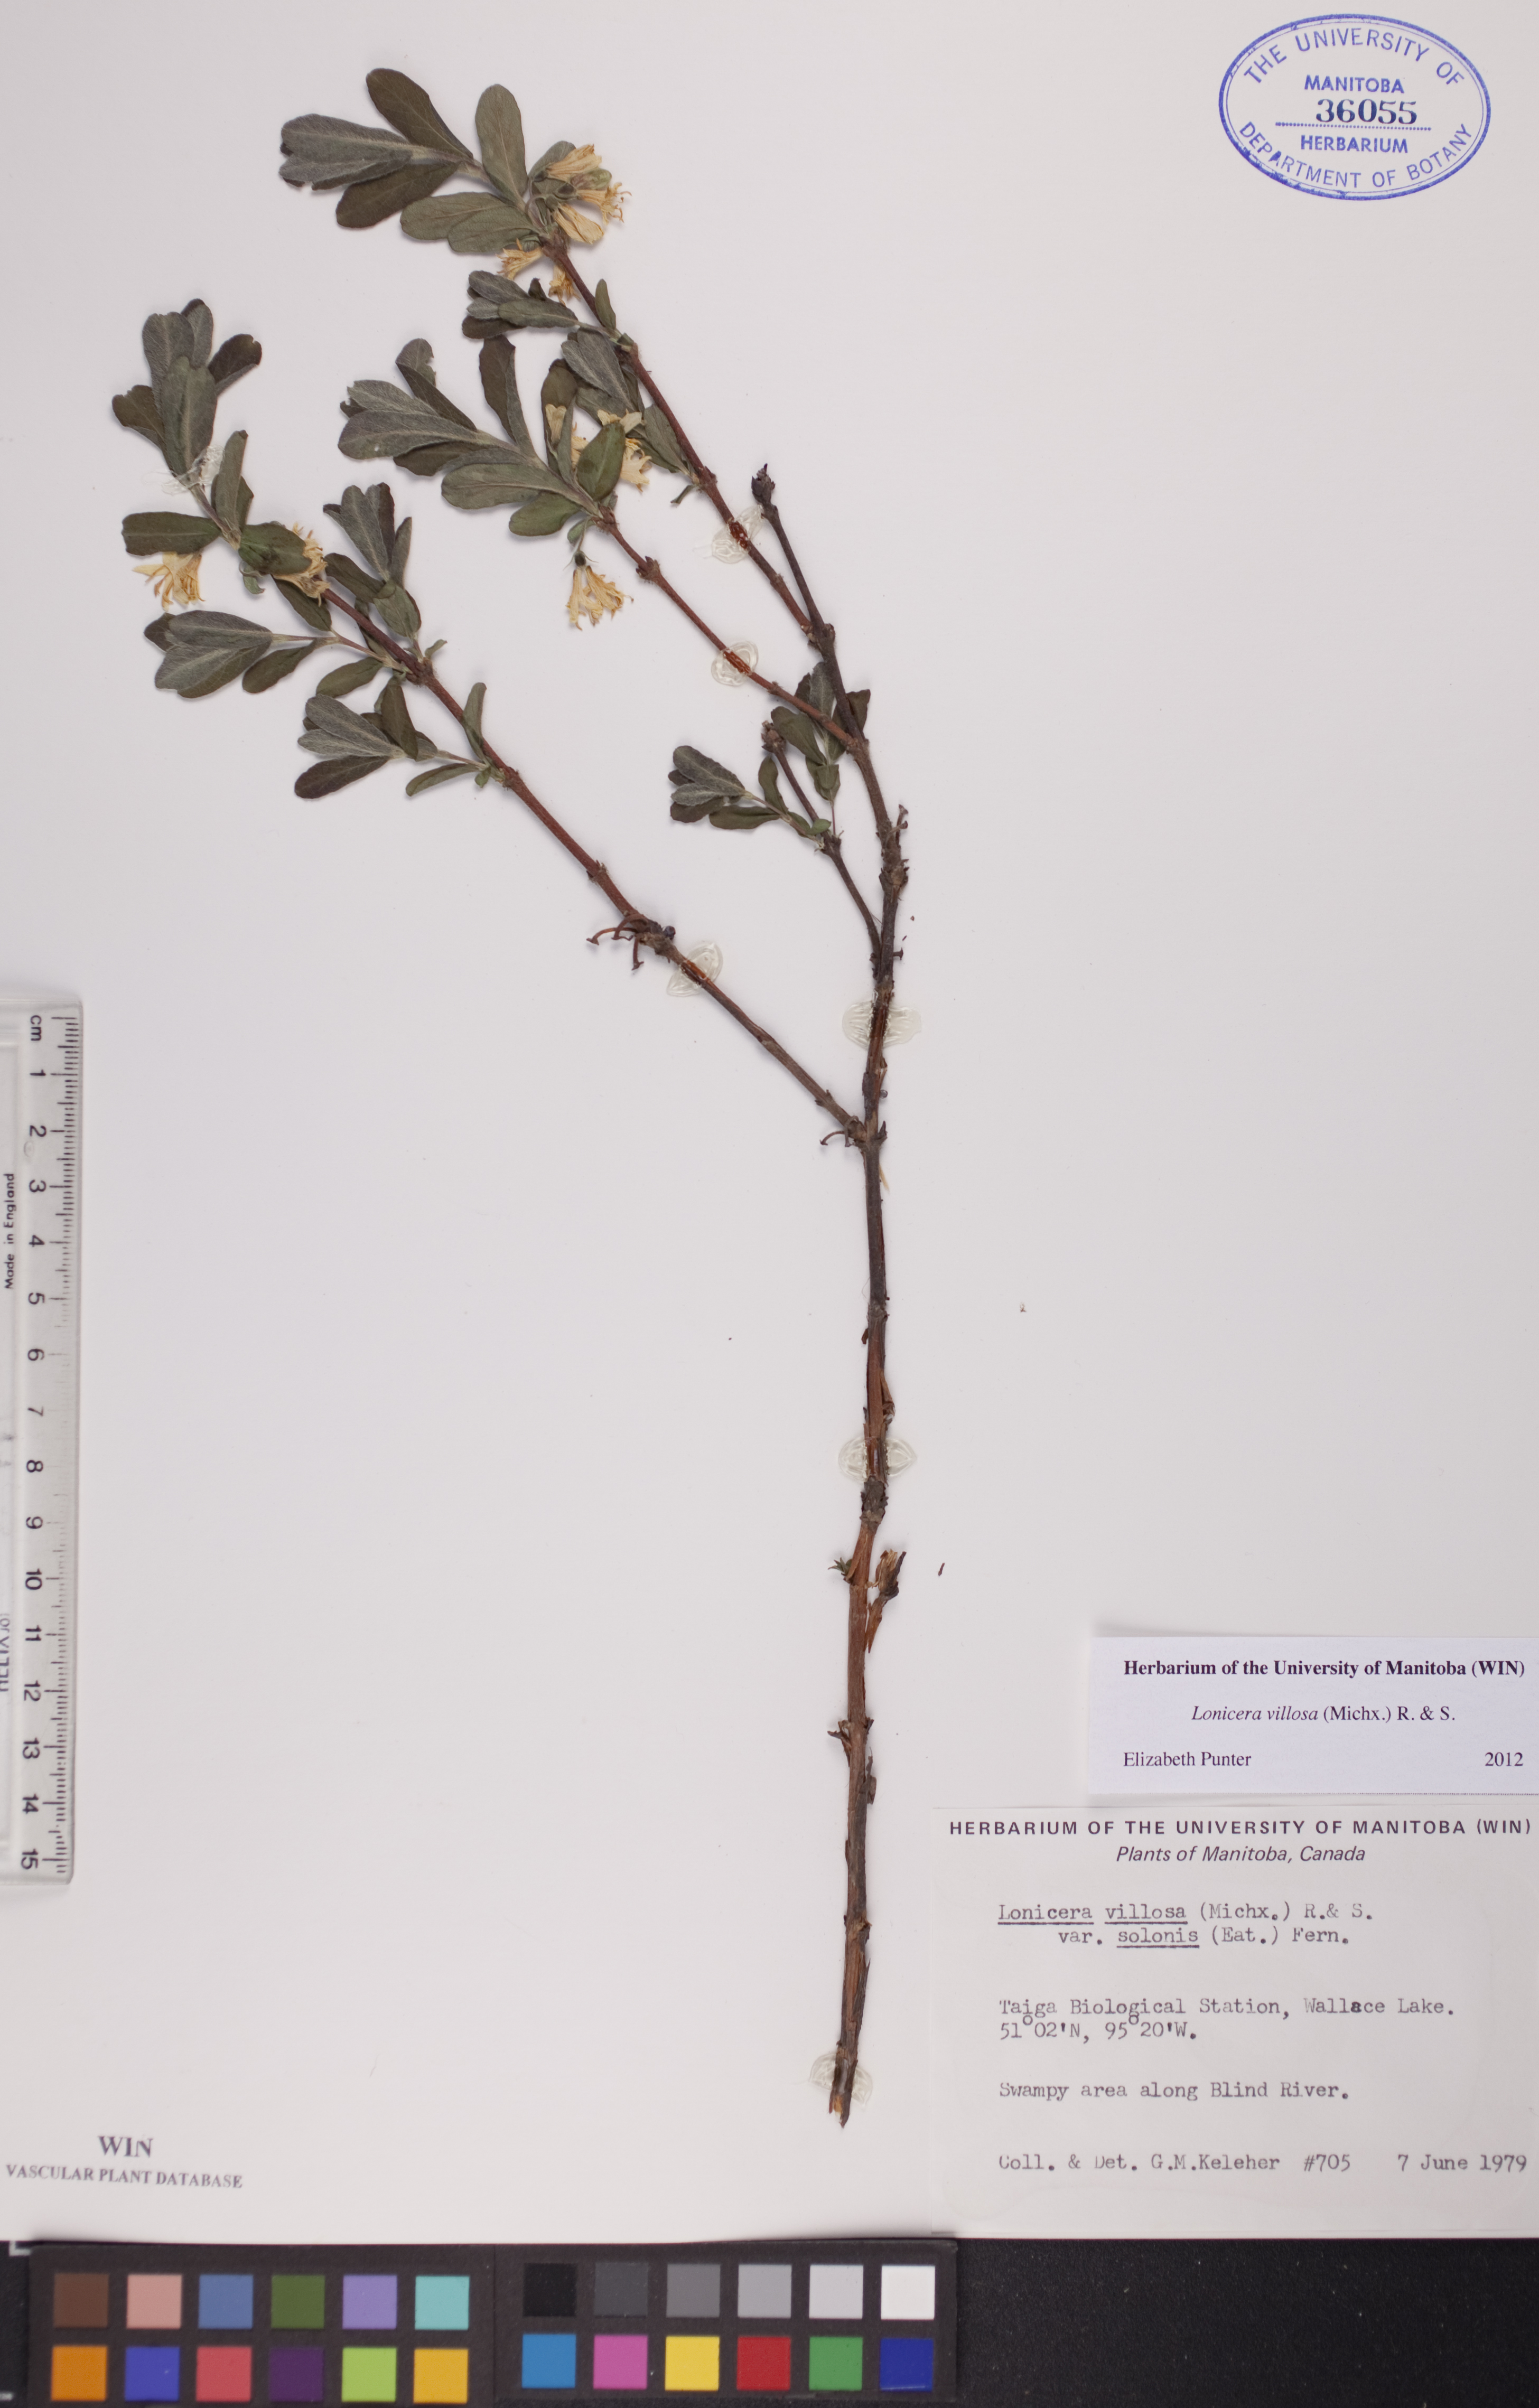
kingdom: Plantae
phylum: Tracheophyta
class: Magnoliopsida
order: Dipsacales
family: Caprifoliaceae
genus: Lonicera
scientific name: Lonicera villosa
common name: Mountain fly-honeysuckle
